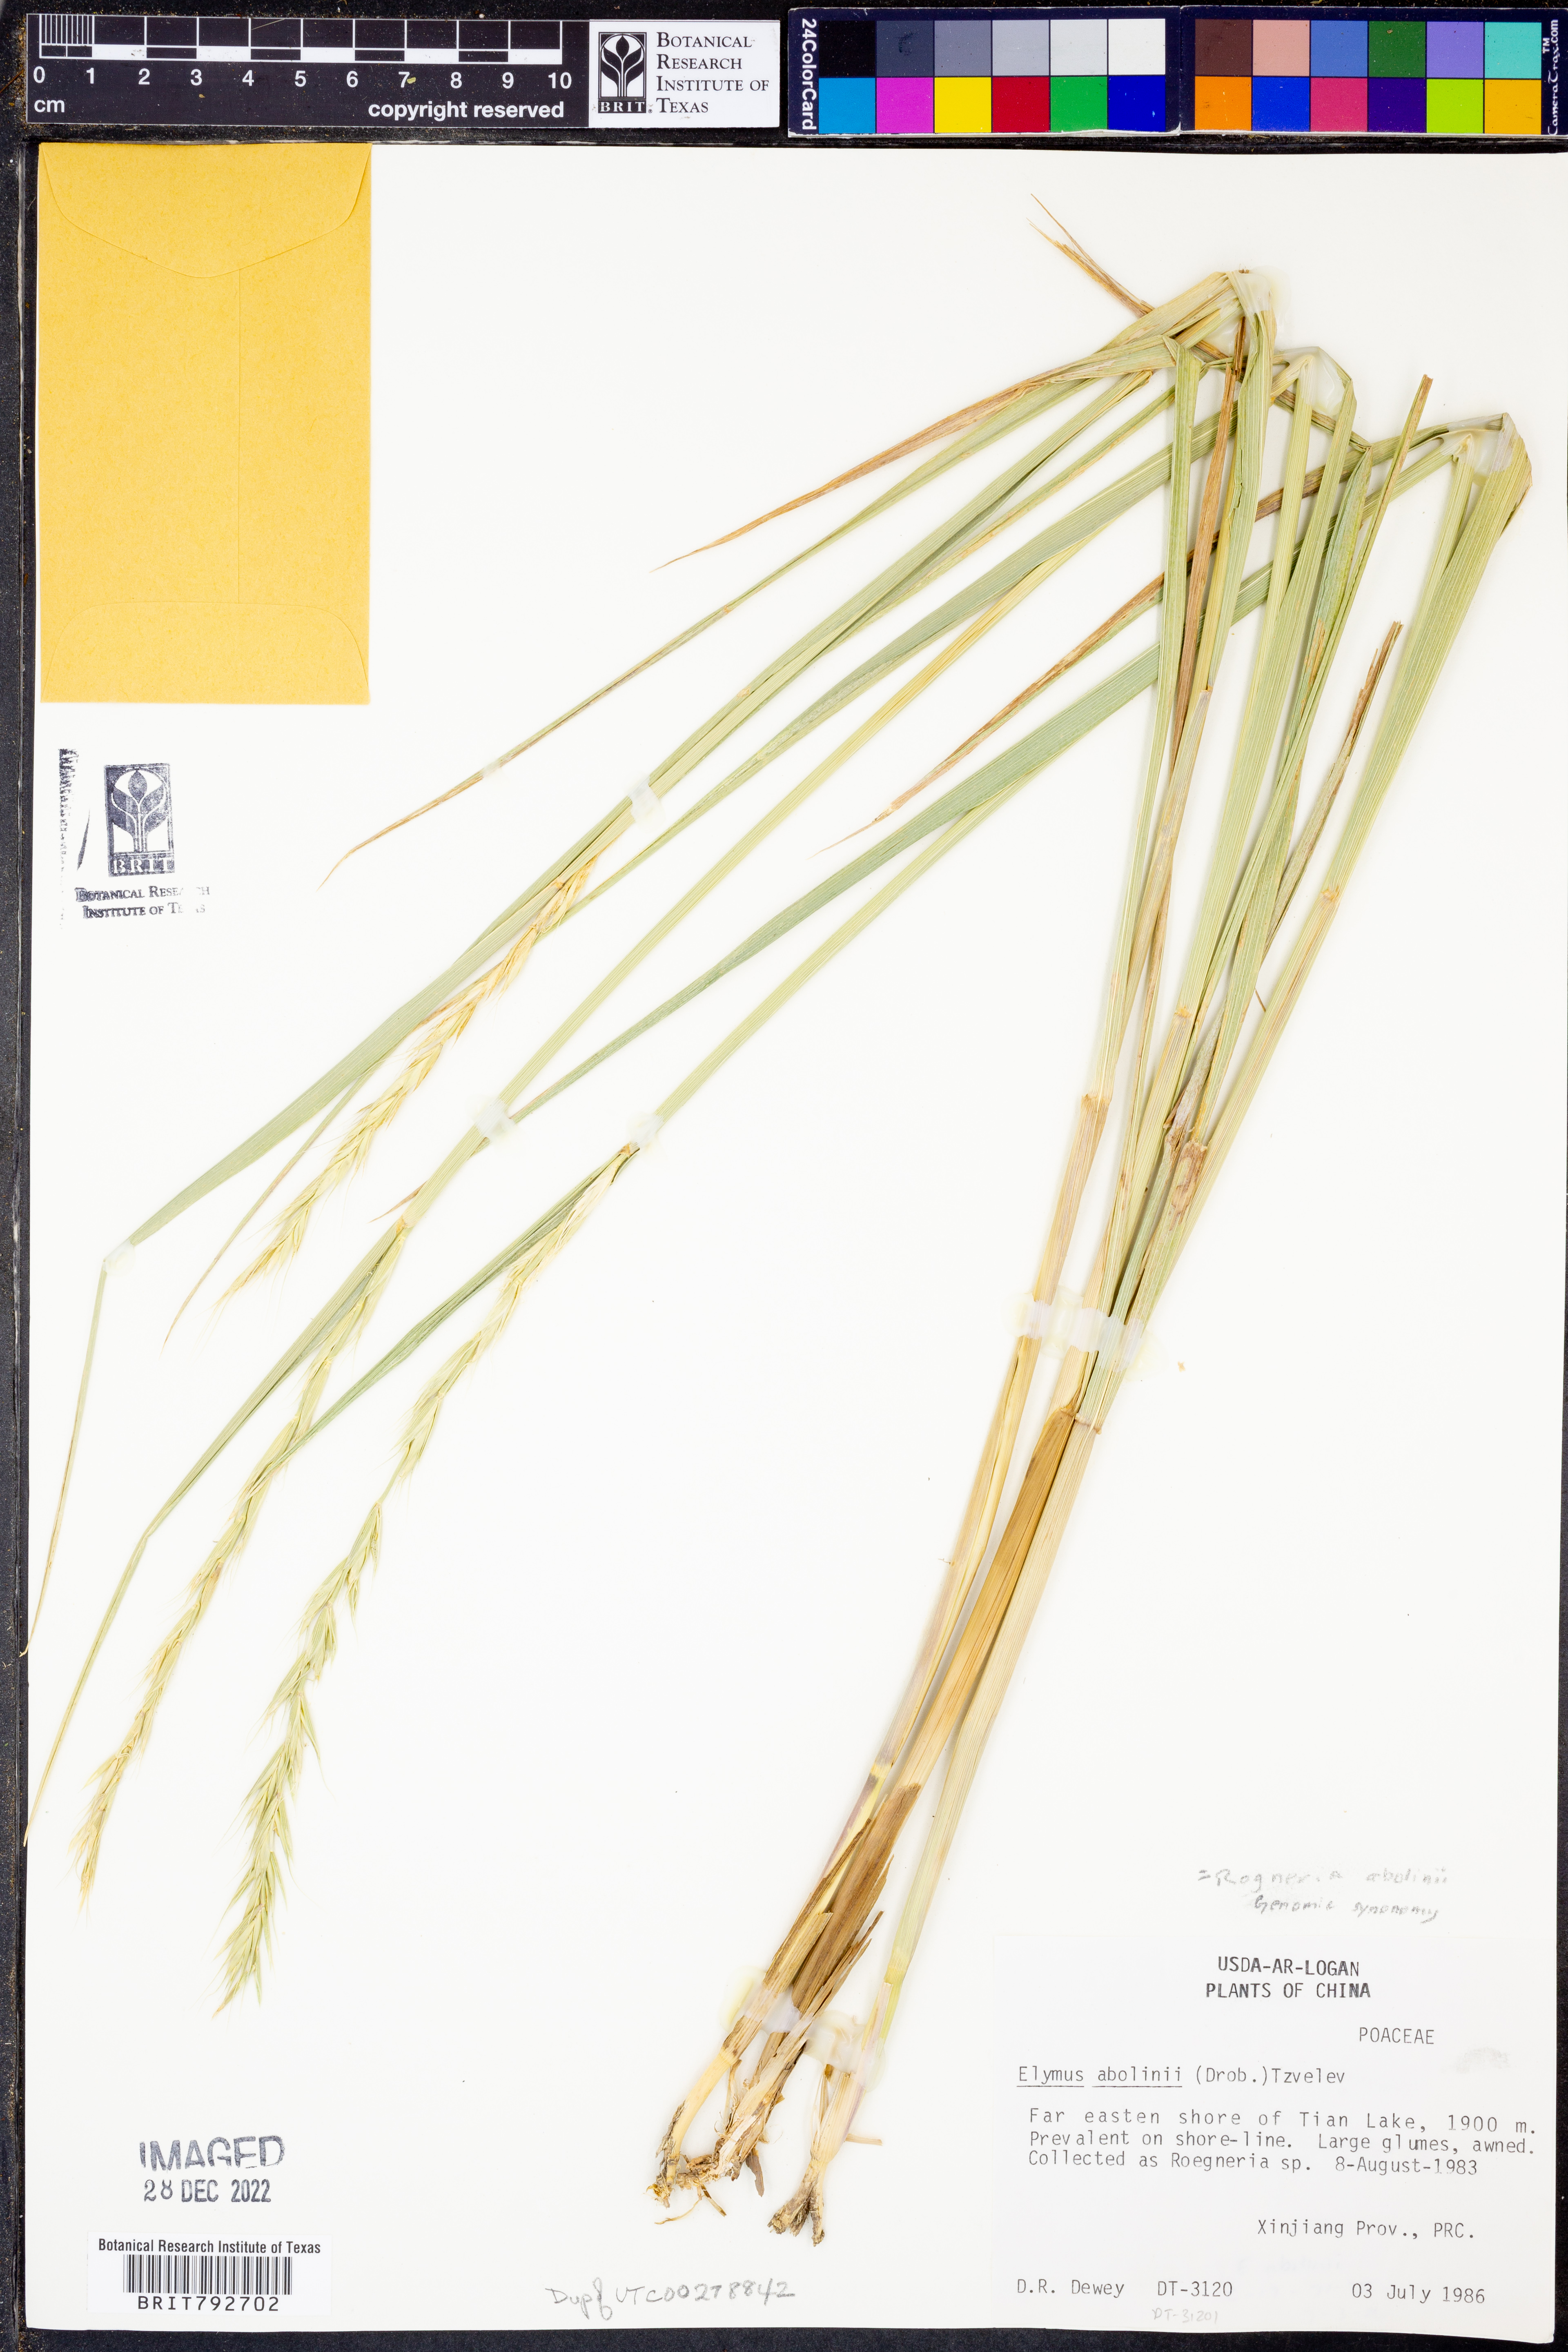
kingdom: Plantae
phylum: Tracheophyta
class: Liliopsida
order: Poales
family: Poaceae
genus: Elymus
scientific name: Elymus abolinii
